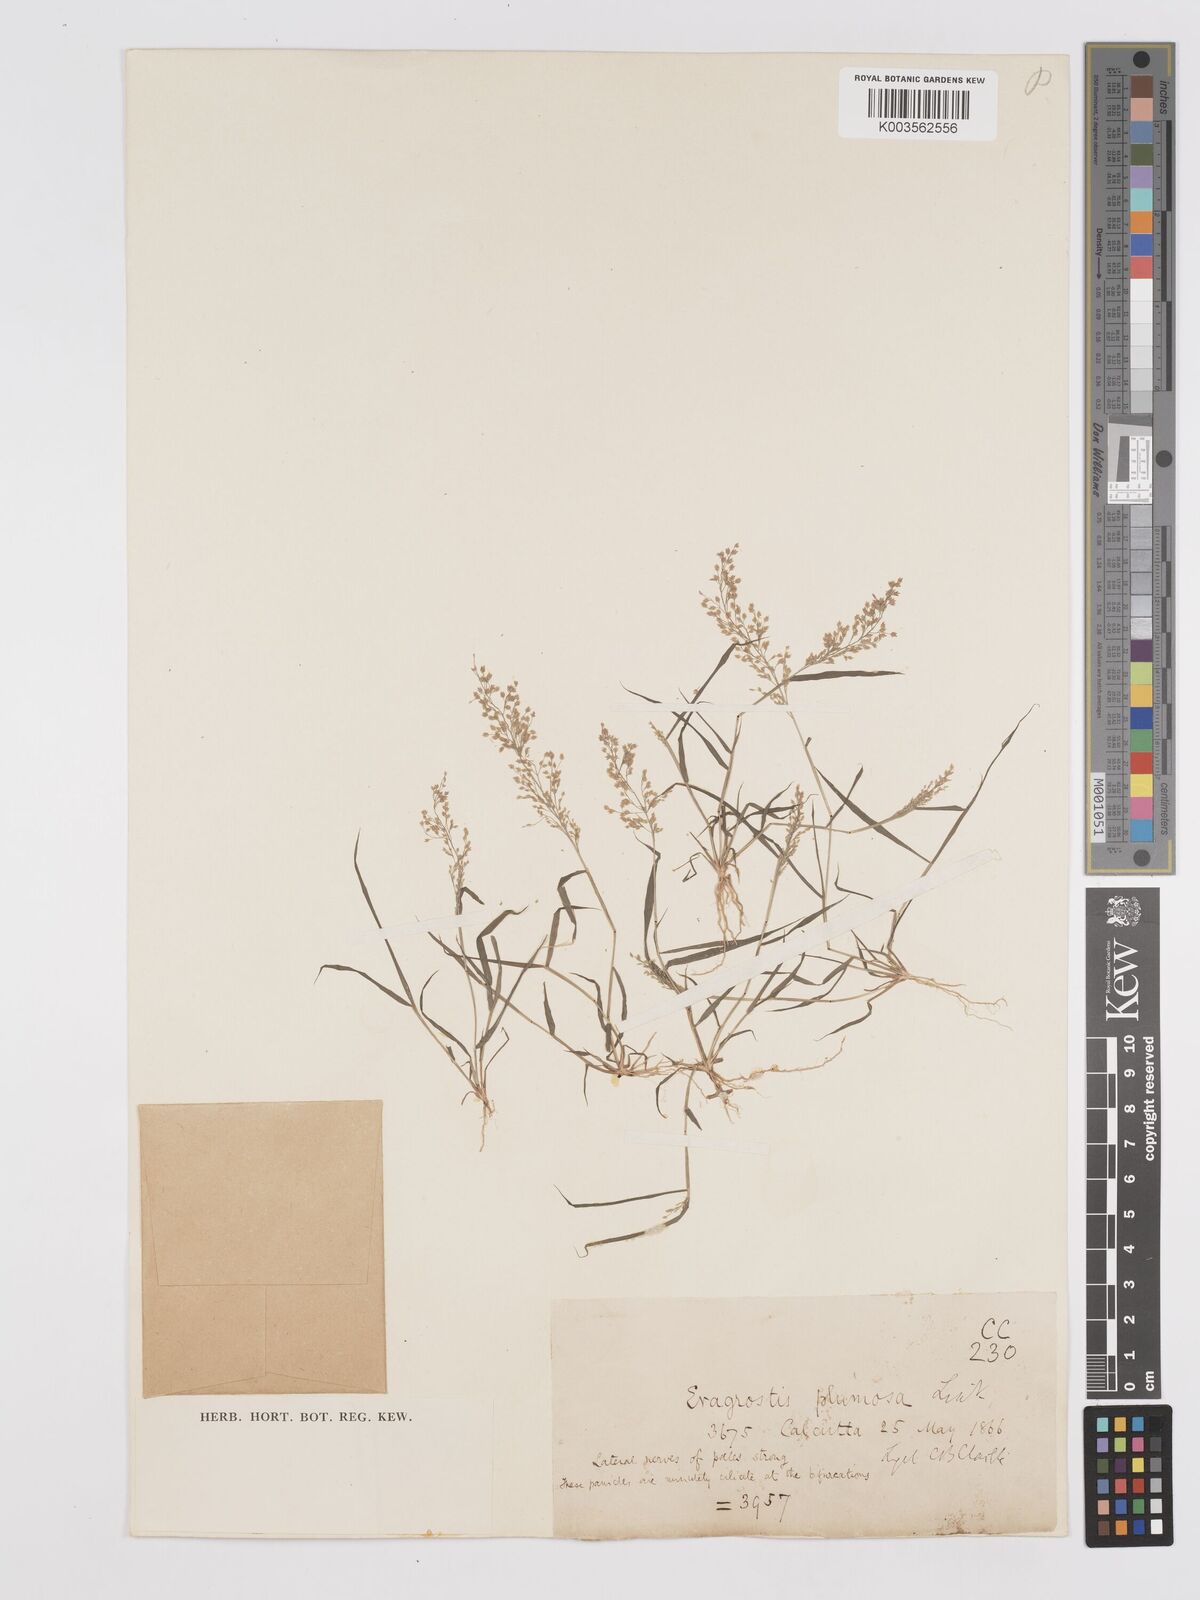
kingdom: Plantae
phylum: Tracheophyta
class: Liliopsida
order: Poales
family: Poaceae
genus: Eragrostis
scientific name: Eragrostis tenella
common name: Japanese lovegrass
